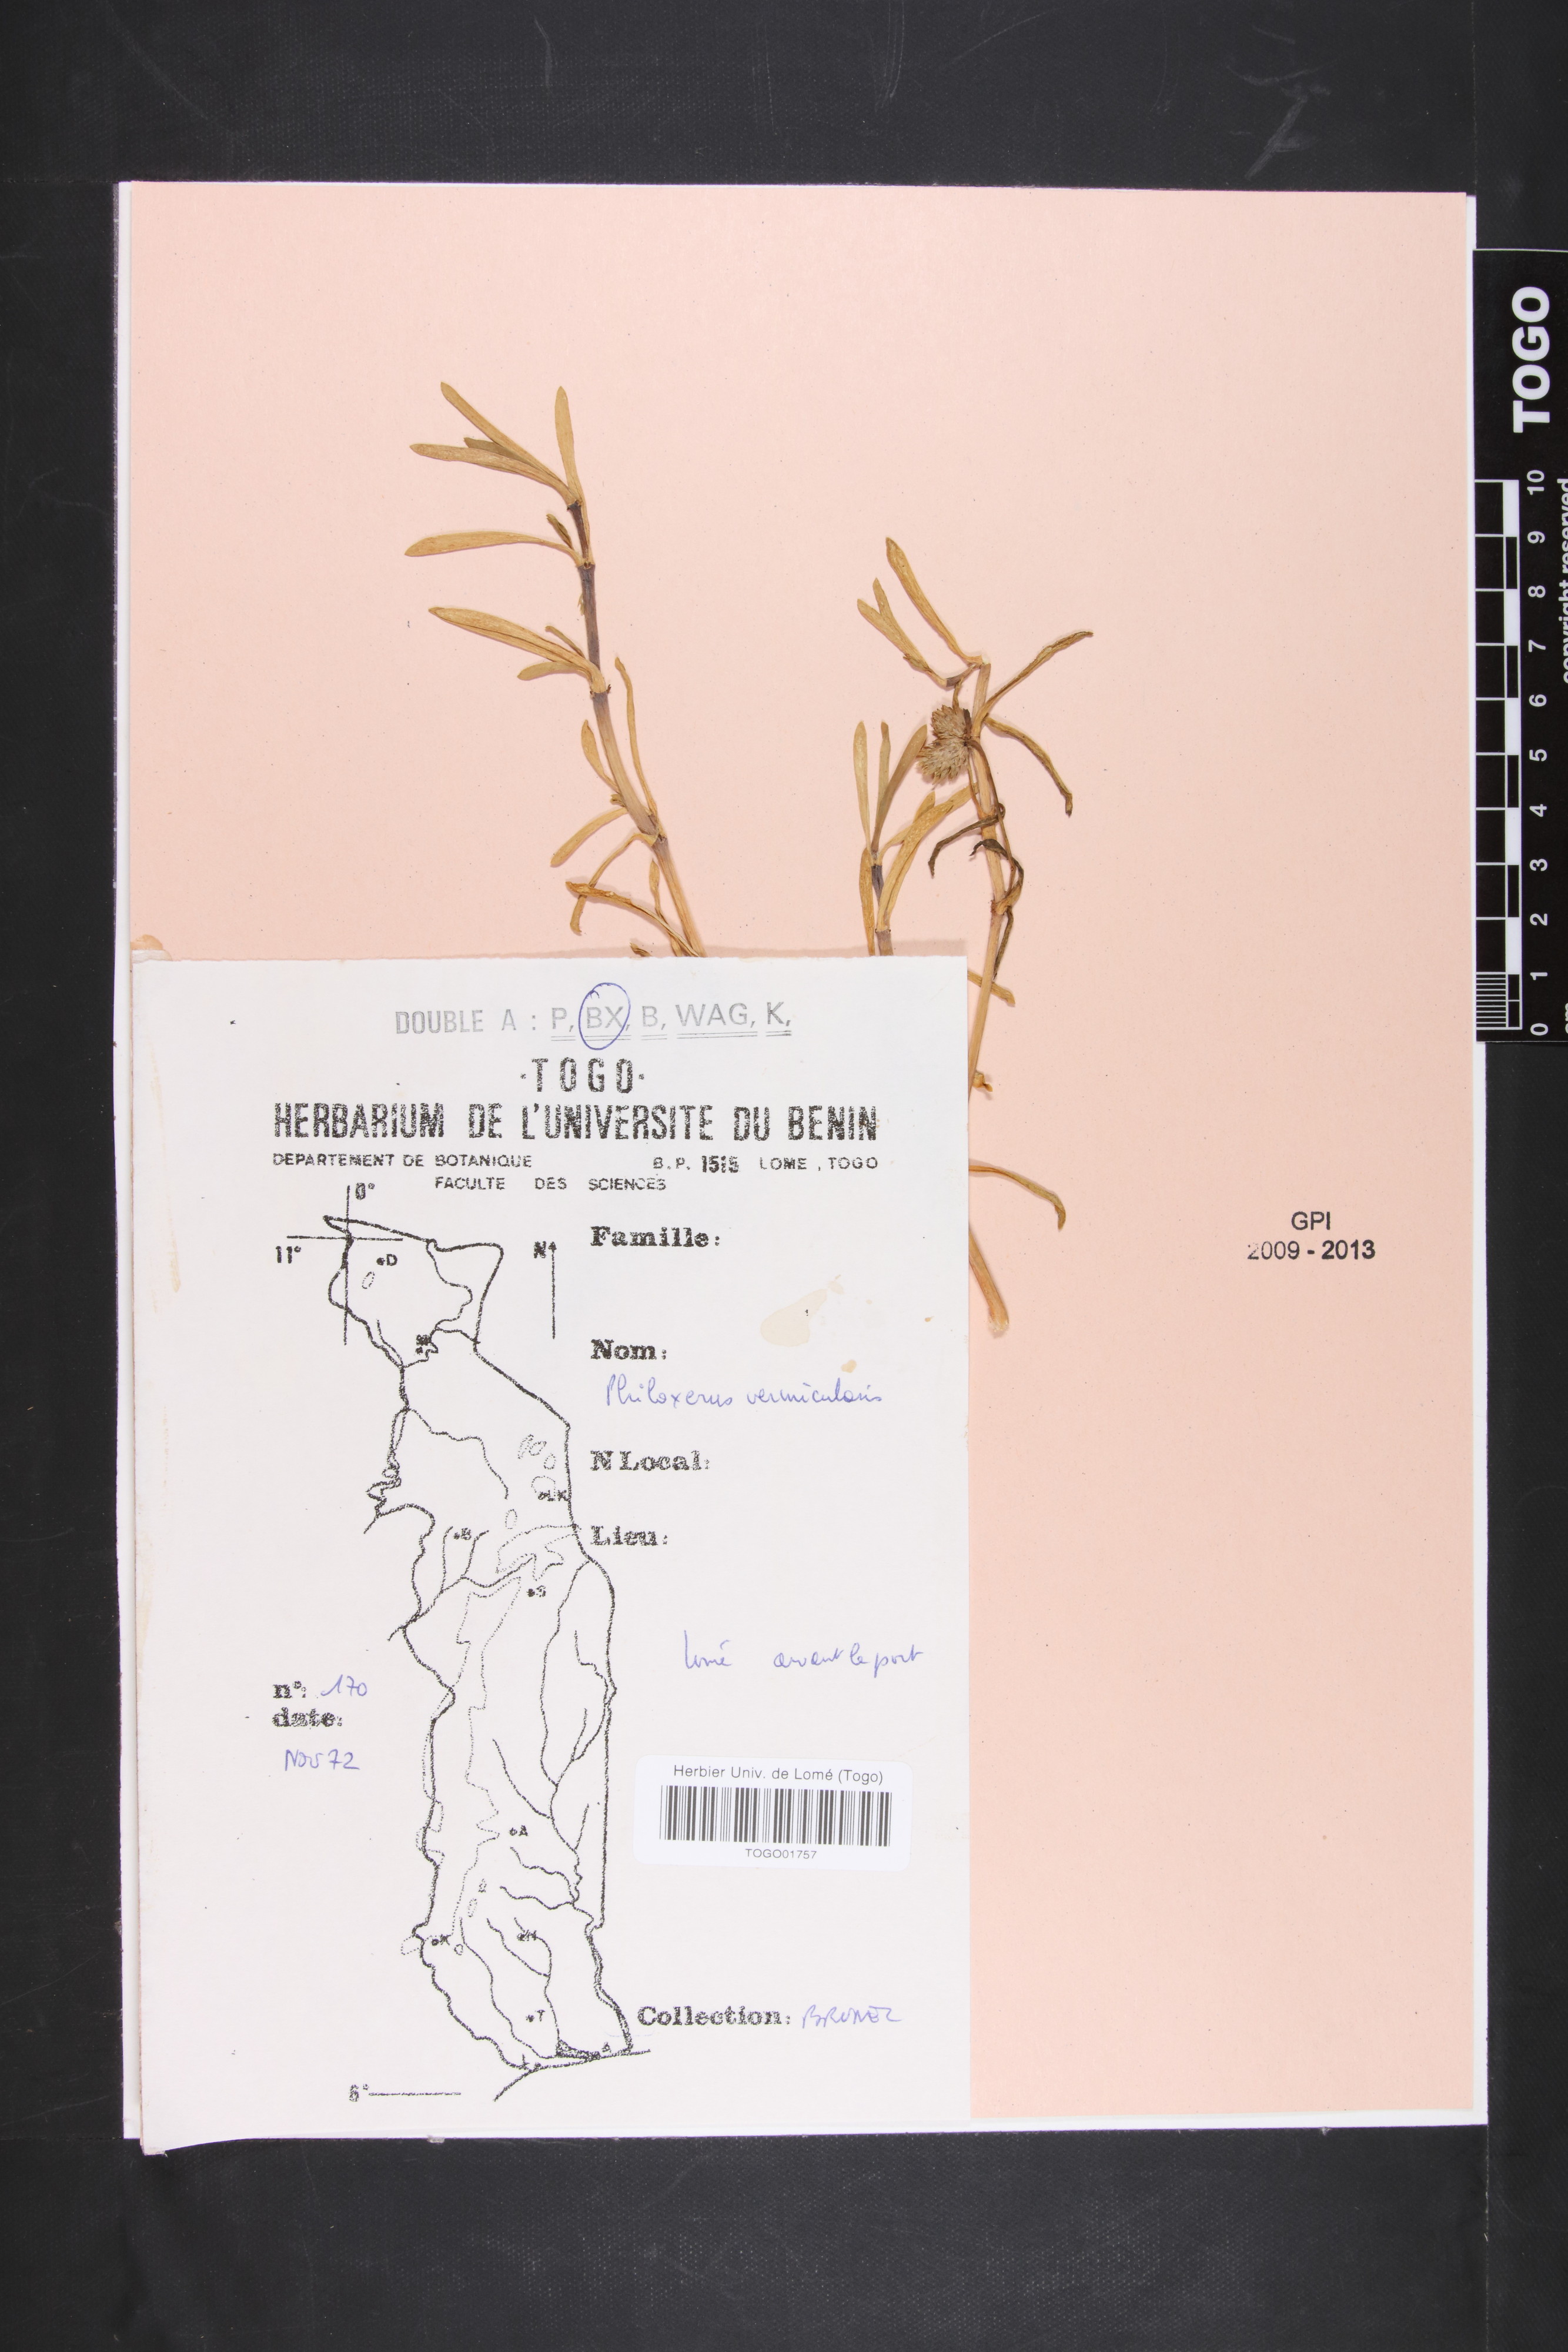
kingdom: Plantae
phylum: Tracheophyta
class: Magnoliopsida
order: Caryophyllales
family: Amaranthaceae
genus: Gomphrena
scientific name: Gomphrena vermicularis
